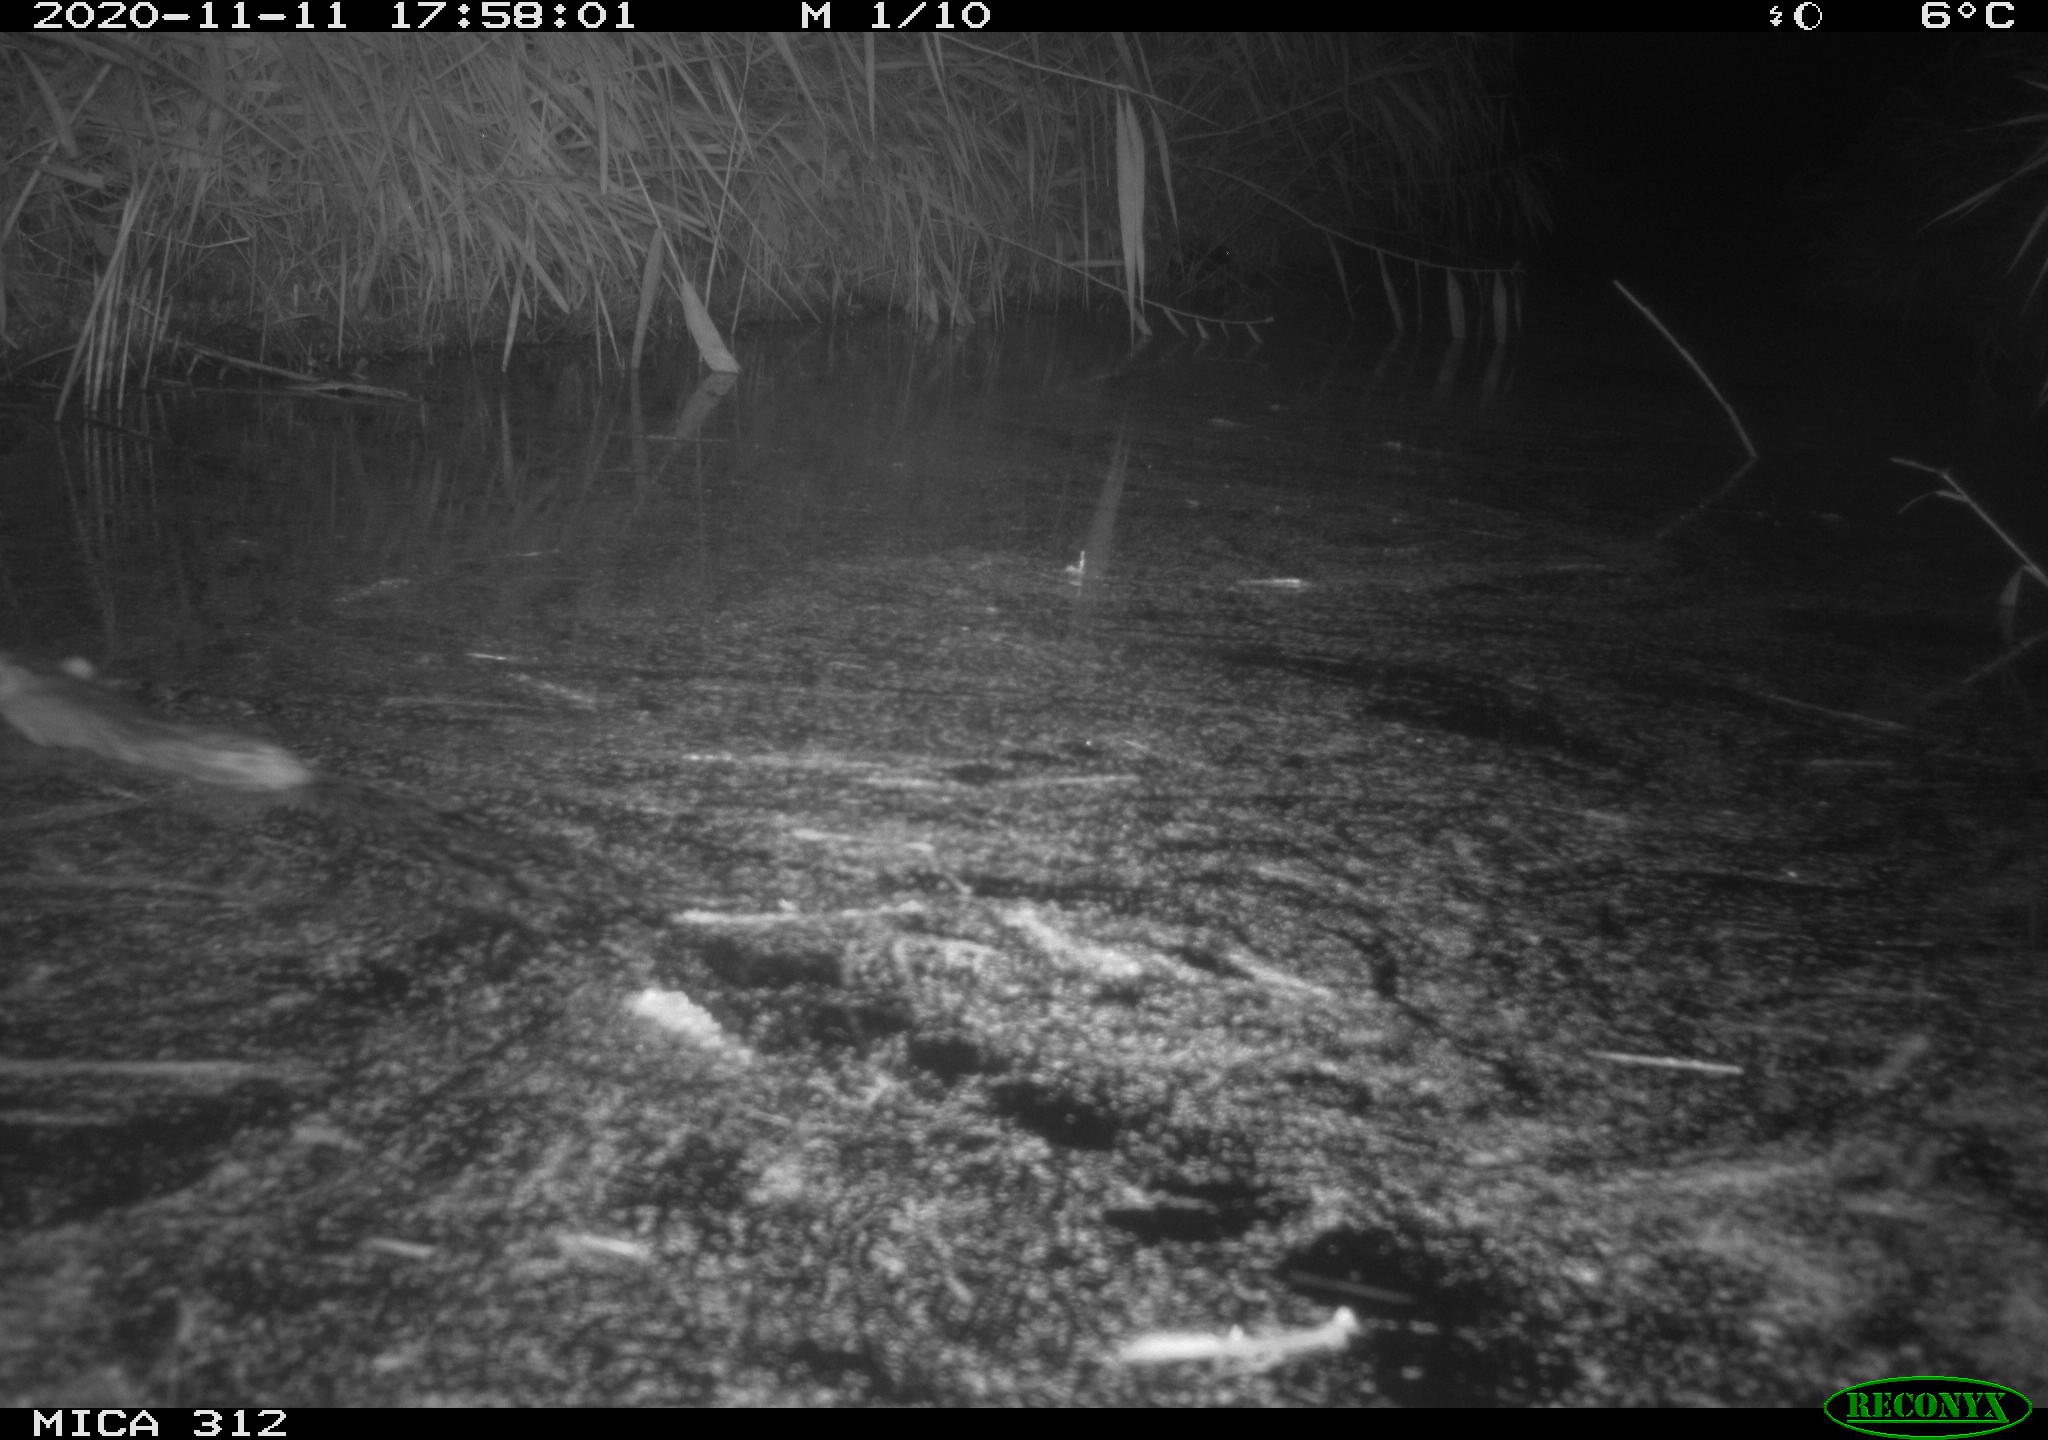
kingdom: Animalia
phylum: Chordata
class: Mammalia
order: Rodentia
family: Muridae
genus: Rattus
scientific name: Rattus norvegicus
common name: Brown rat
